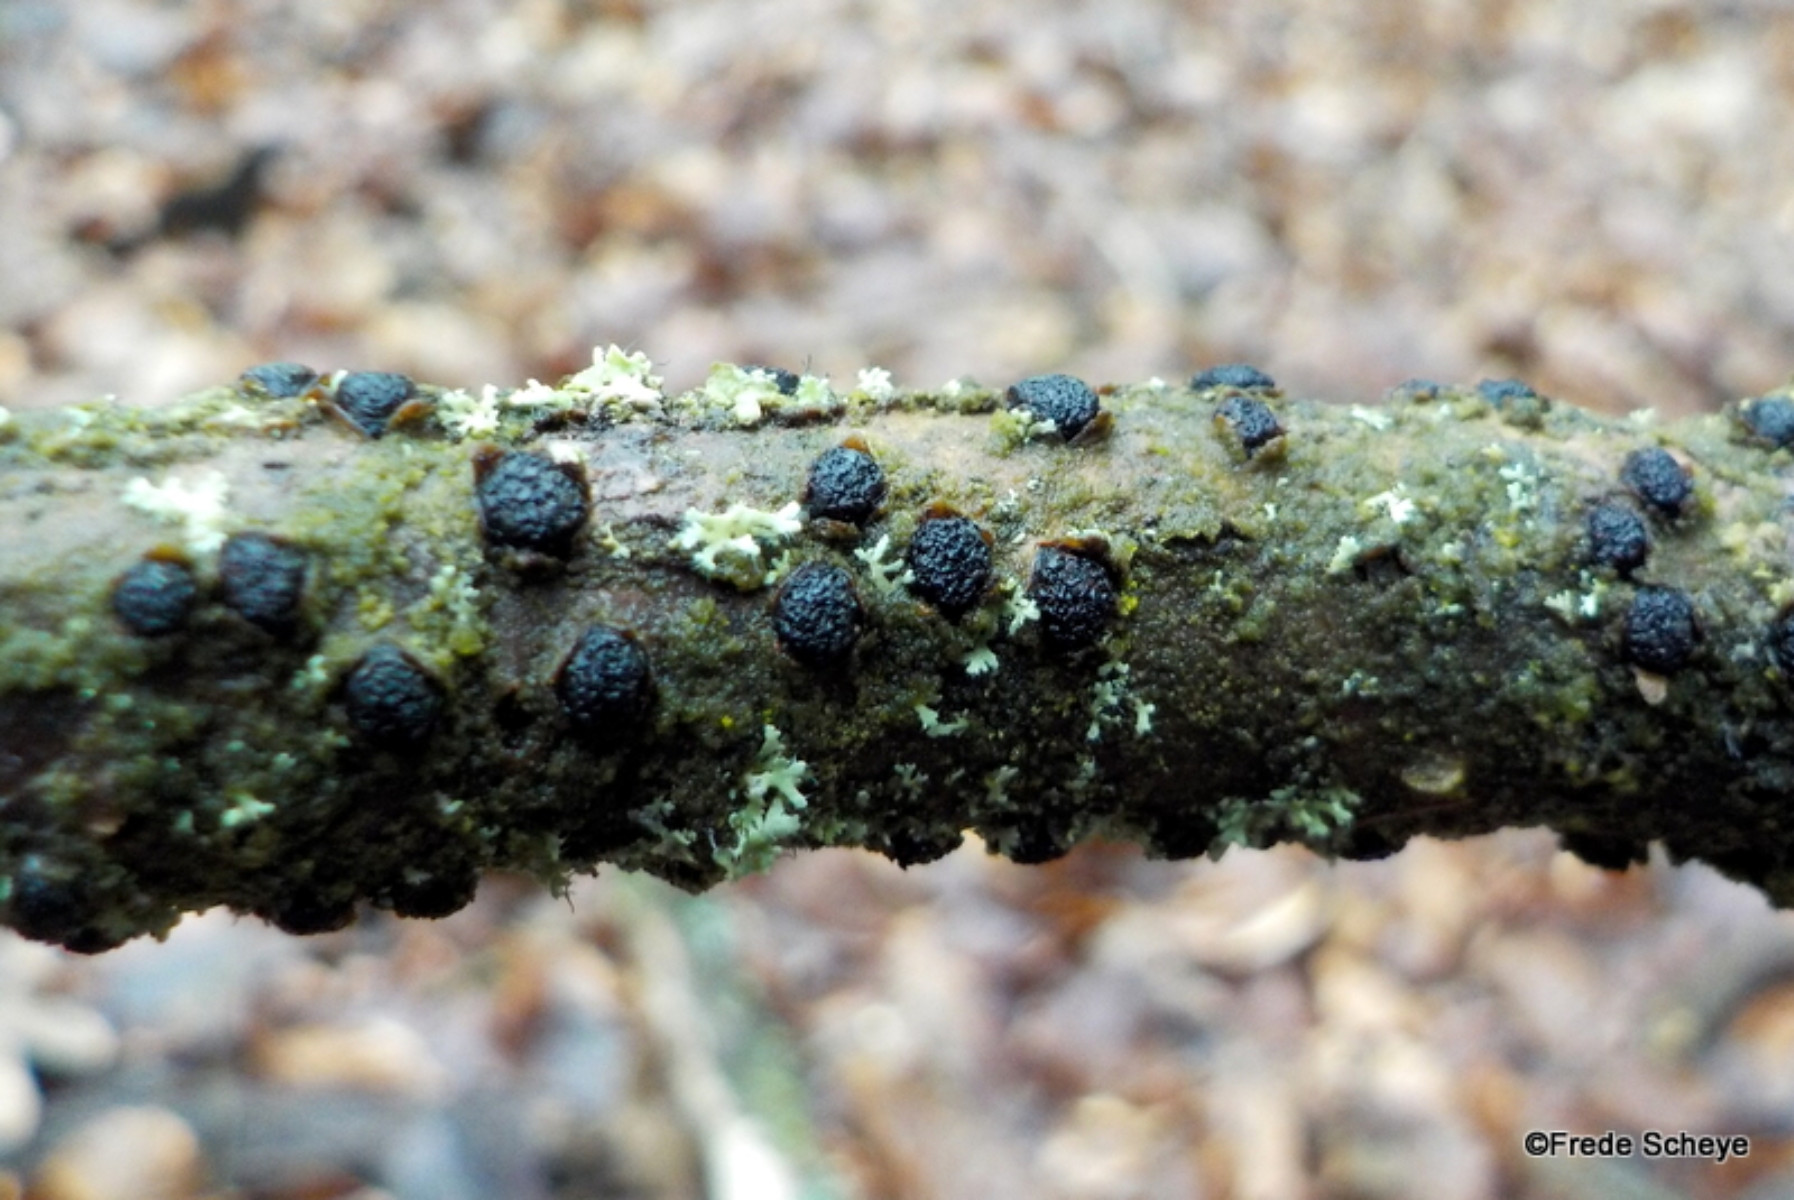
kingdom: Fungi
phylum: Ascomycota
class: Sordariomycetes
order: Xylariales
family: Diatrypaceae
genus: Diatrypella
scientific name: Diatrypella quercina
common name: ege-kulskorpe
